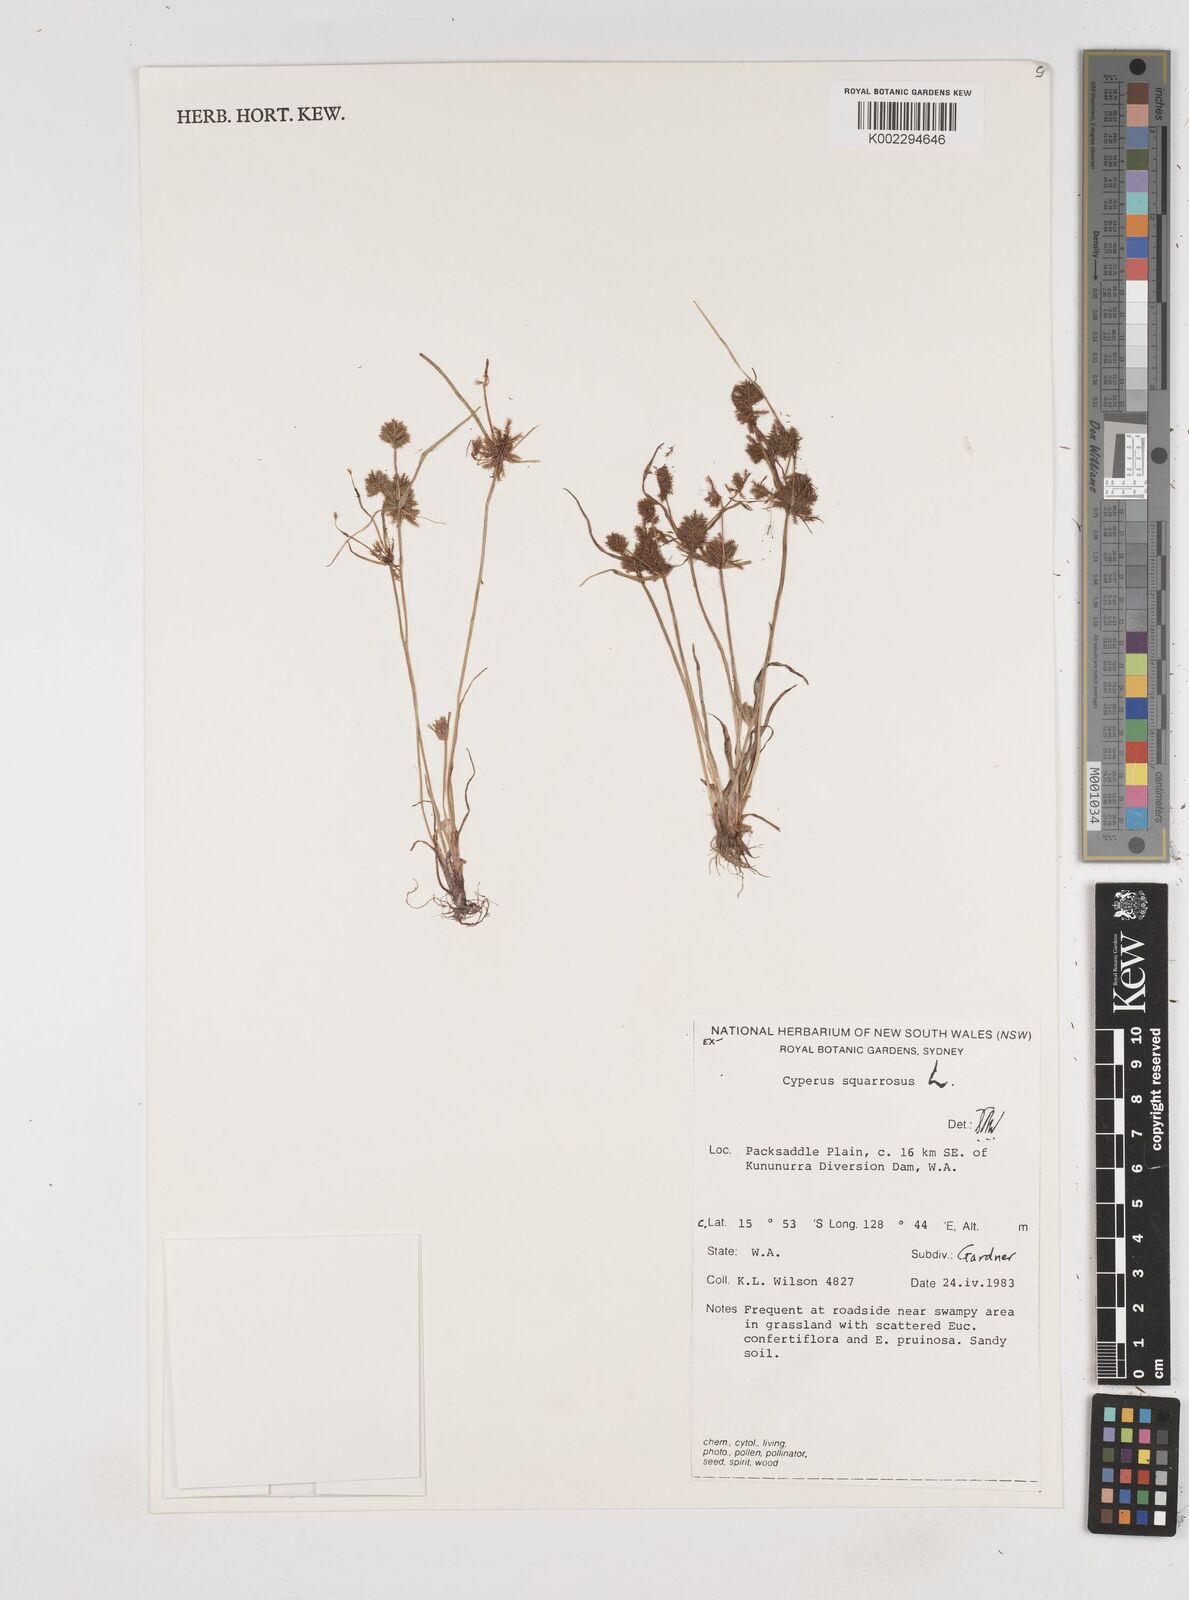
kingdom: Plantae
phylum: Tracheophyta
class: Liliopsida
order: Poales
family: Cyperaceae
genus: Cyperus
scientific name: Cyperus squarrosus
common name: Awned cyperus
